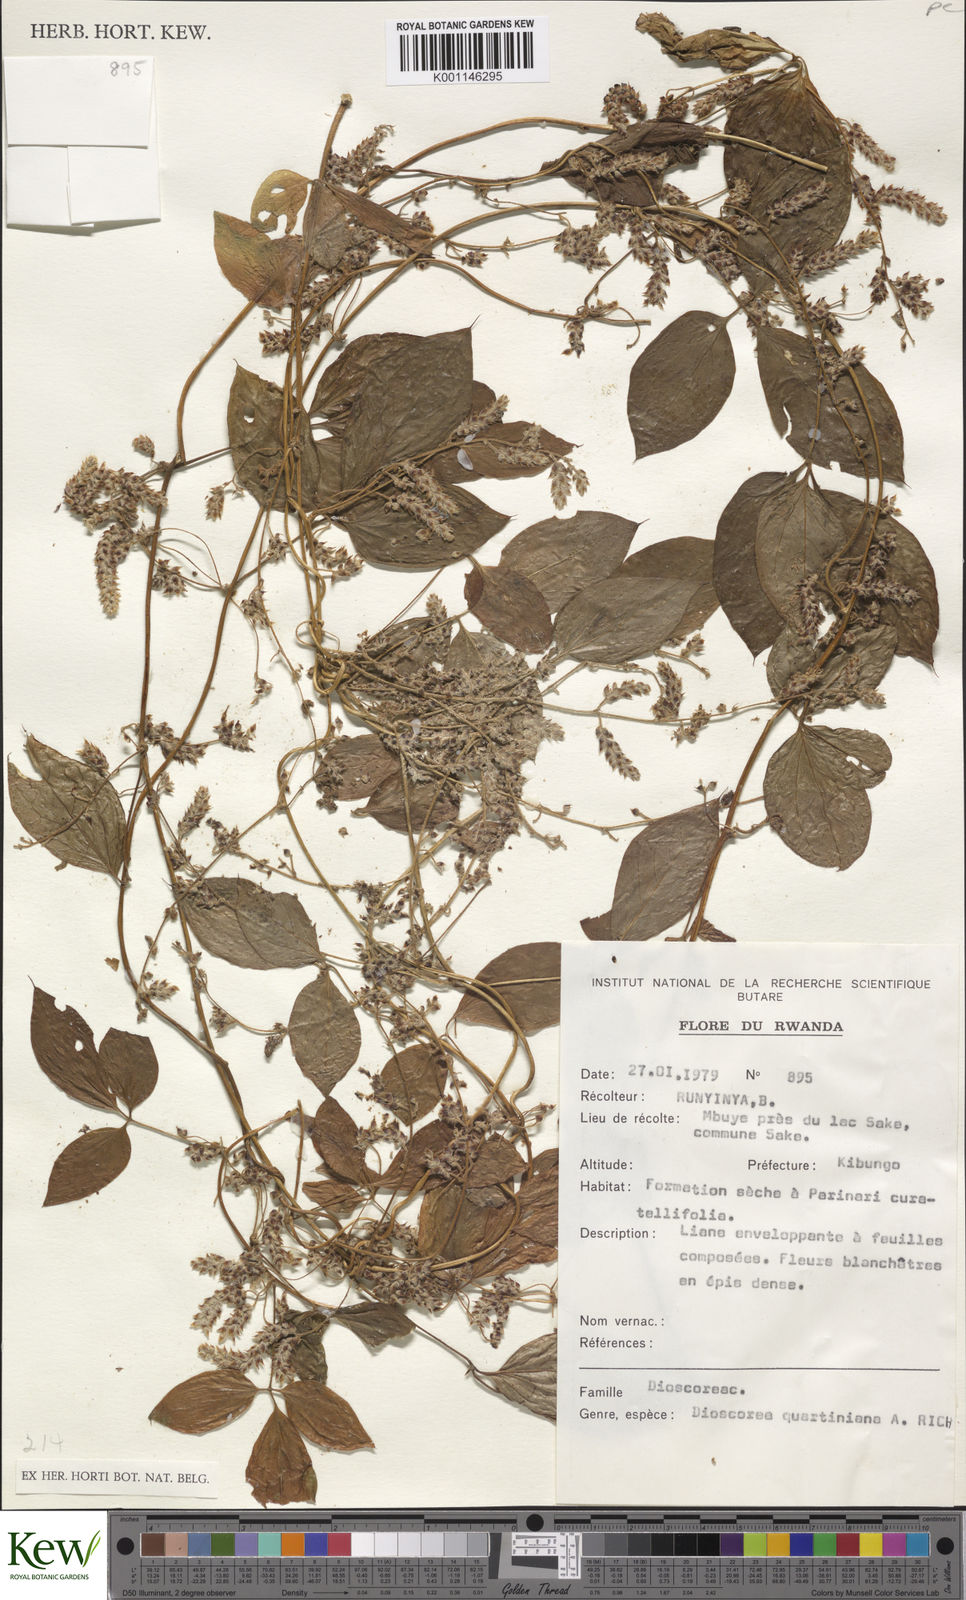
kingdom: Plantae
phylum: Tracheophyta
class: Liliopsida
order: Dioscoreales
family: Dioscoreaceae
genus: Dioscorea
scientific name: Dioscorea quartiniana
